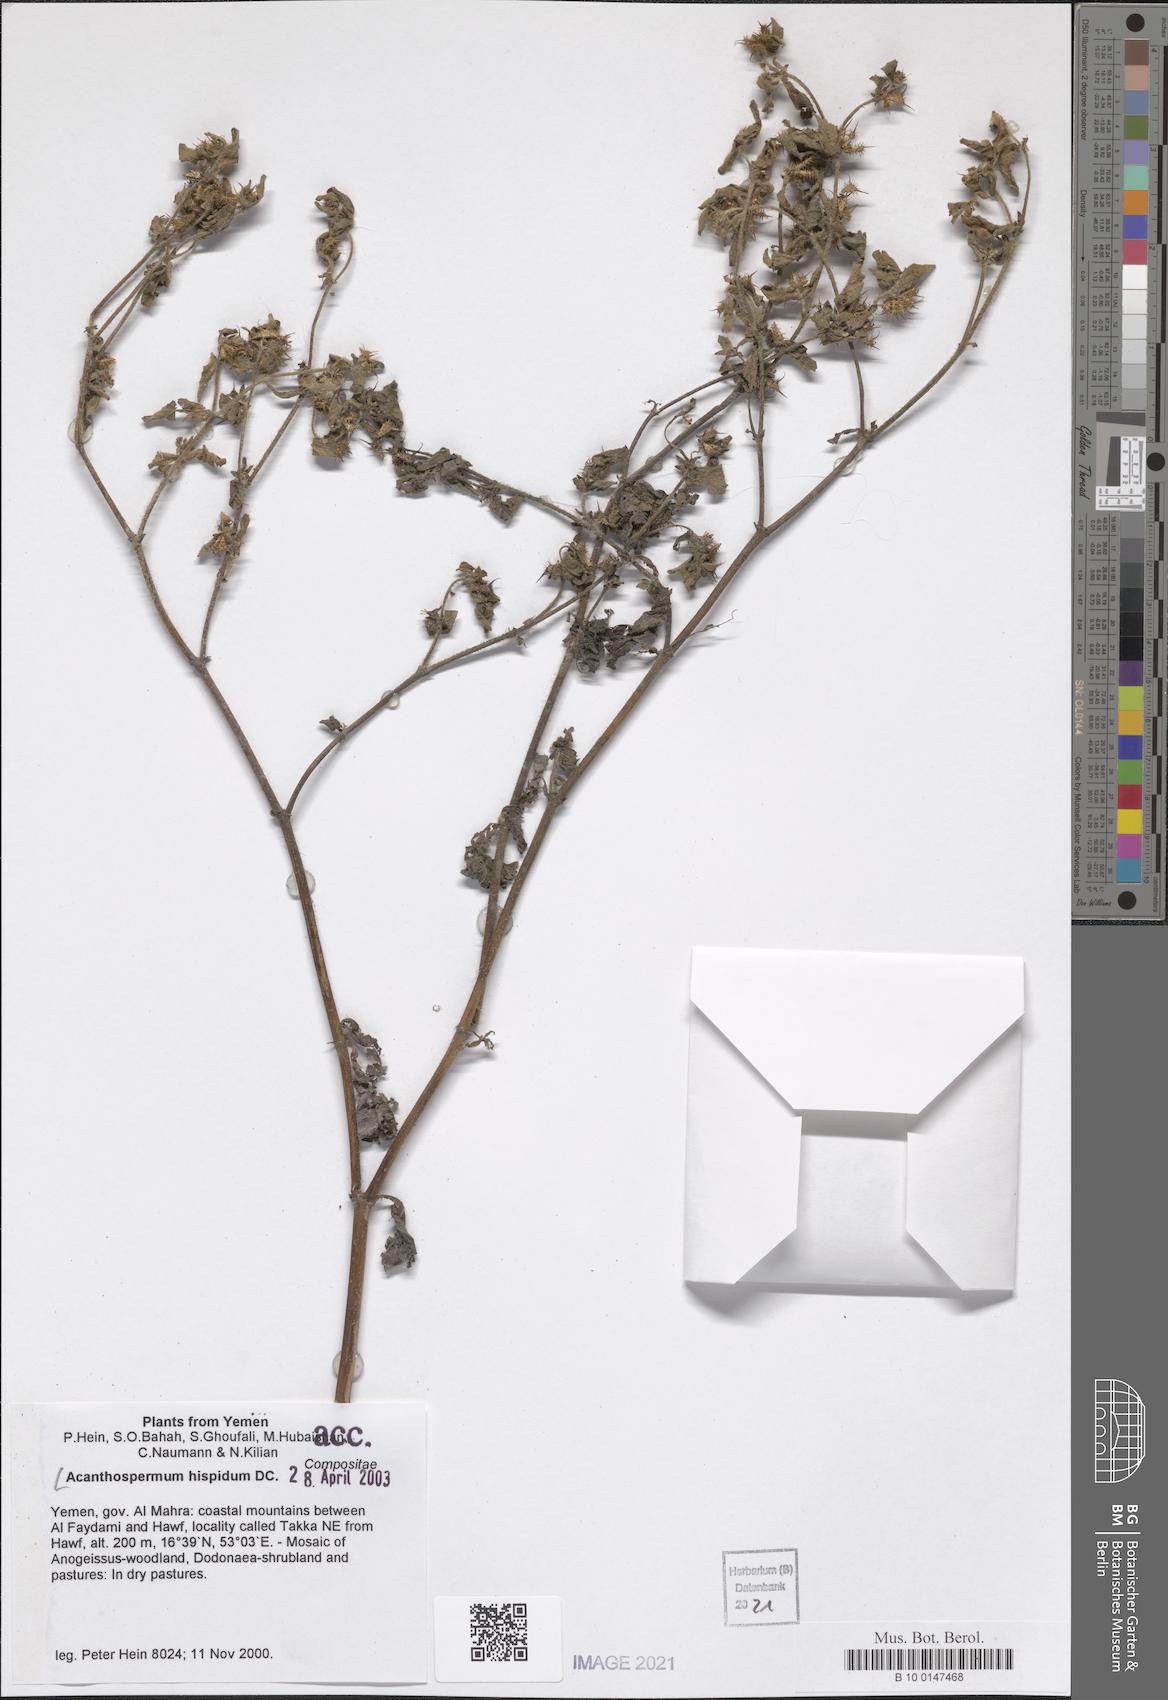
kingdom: Plantae
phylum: Tracheophyta
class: Magnoliopsida
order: Asterales
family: Asteraceae
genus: Acanthospermum
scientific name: Acanthospermum hispidum
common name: Hispid starbur
